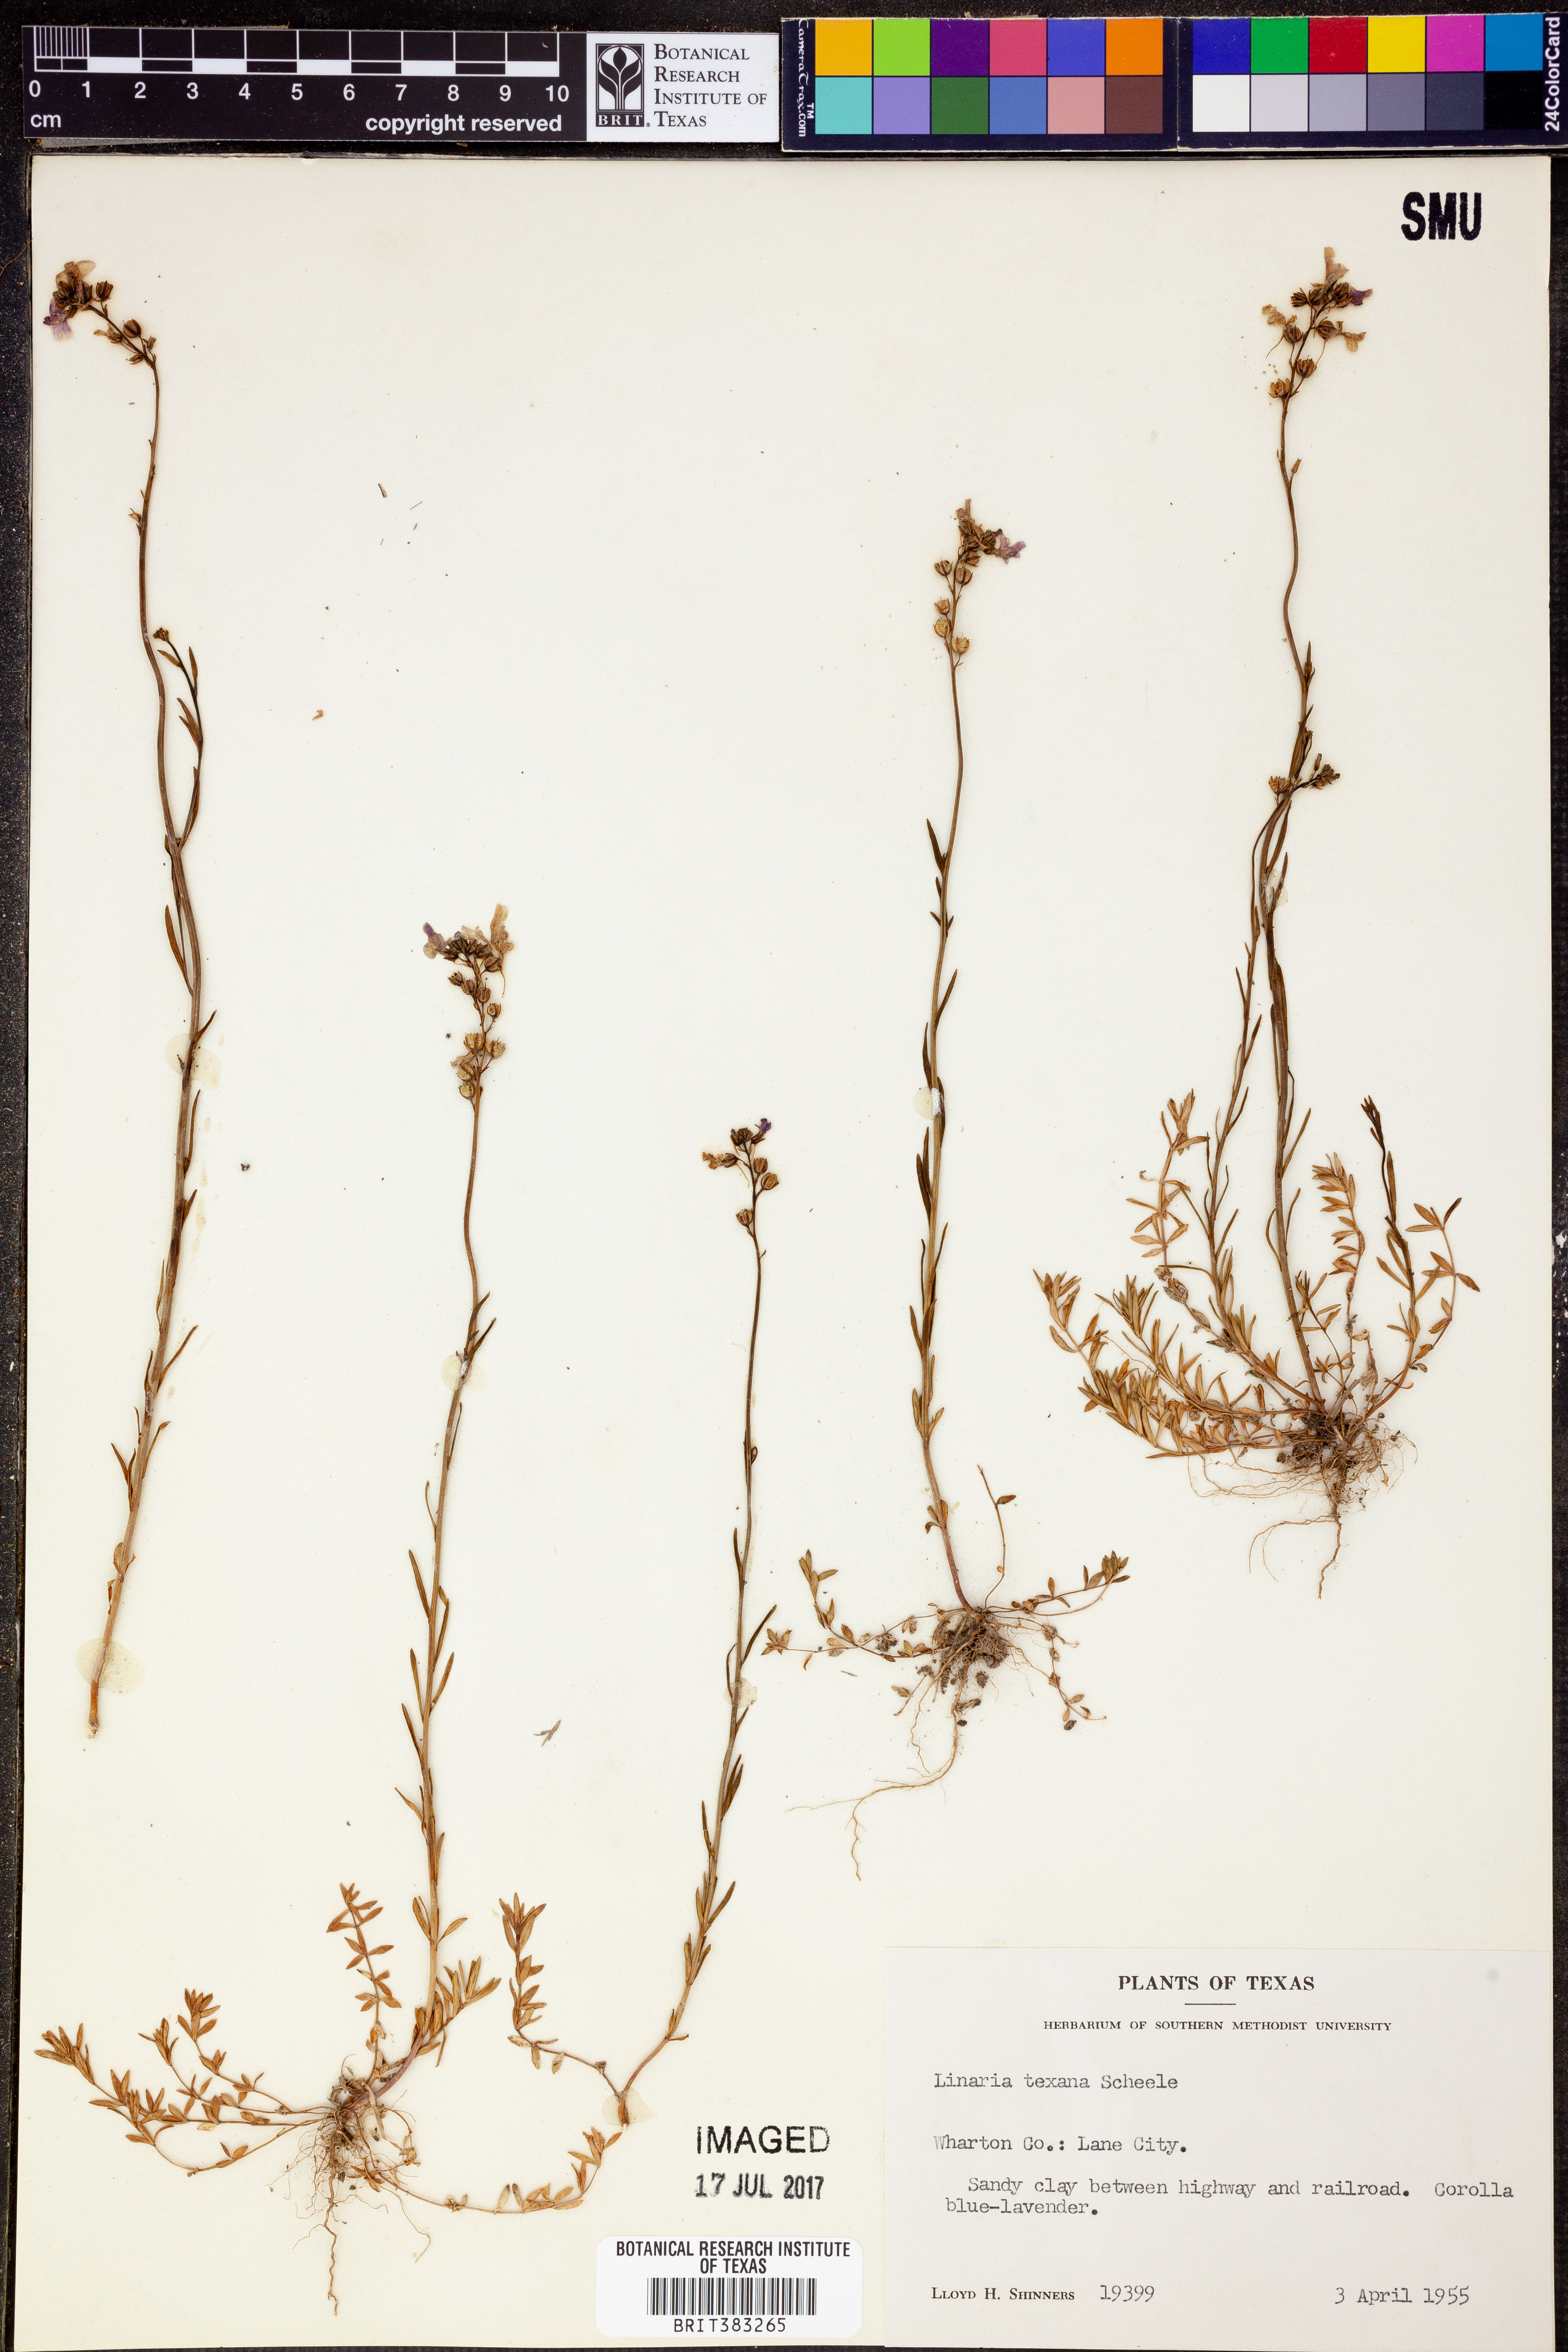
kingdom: Plantae
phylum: Tracheophyta
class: Magnoliopsida
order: Lamiales
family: Plantaginaceae
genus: Nuttallanthus
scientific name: Nuttallanthus texanus
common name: Texas toadflax
